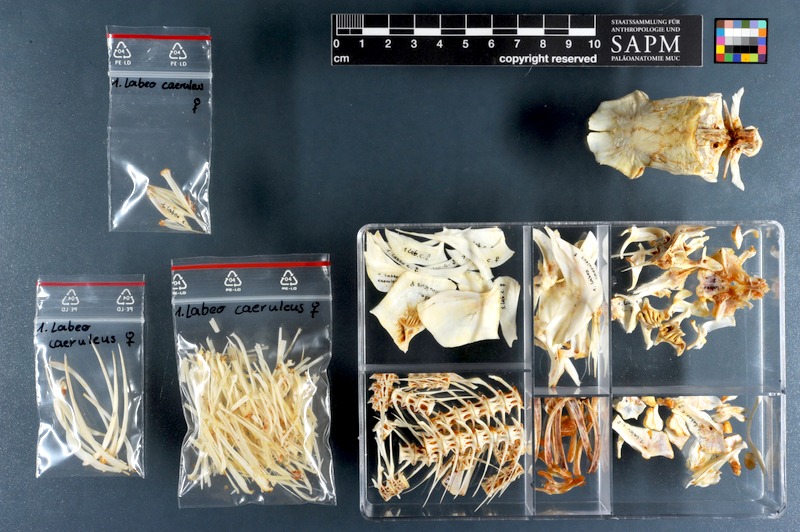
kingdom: Animalia
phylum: Chordata
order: Cypriniformes
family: Cyprinidae
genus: Labeo
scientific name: Labeo caeruleus
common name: Neeli rohu
